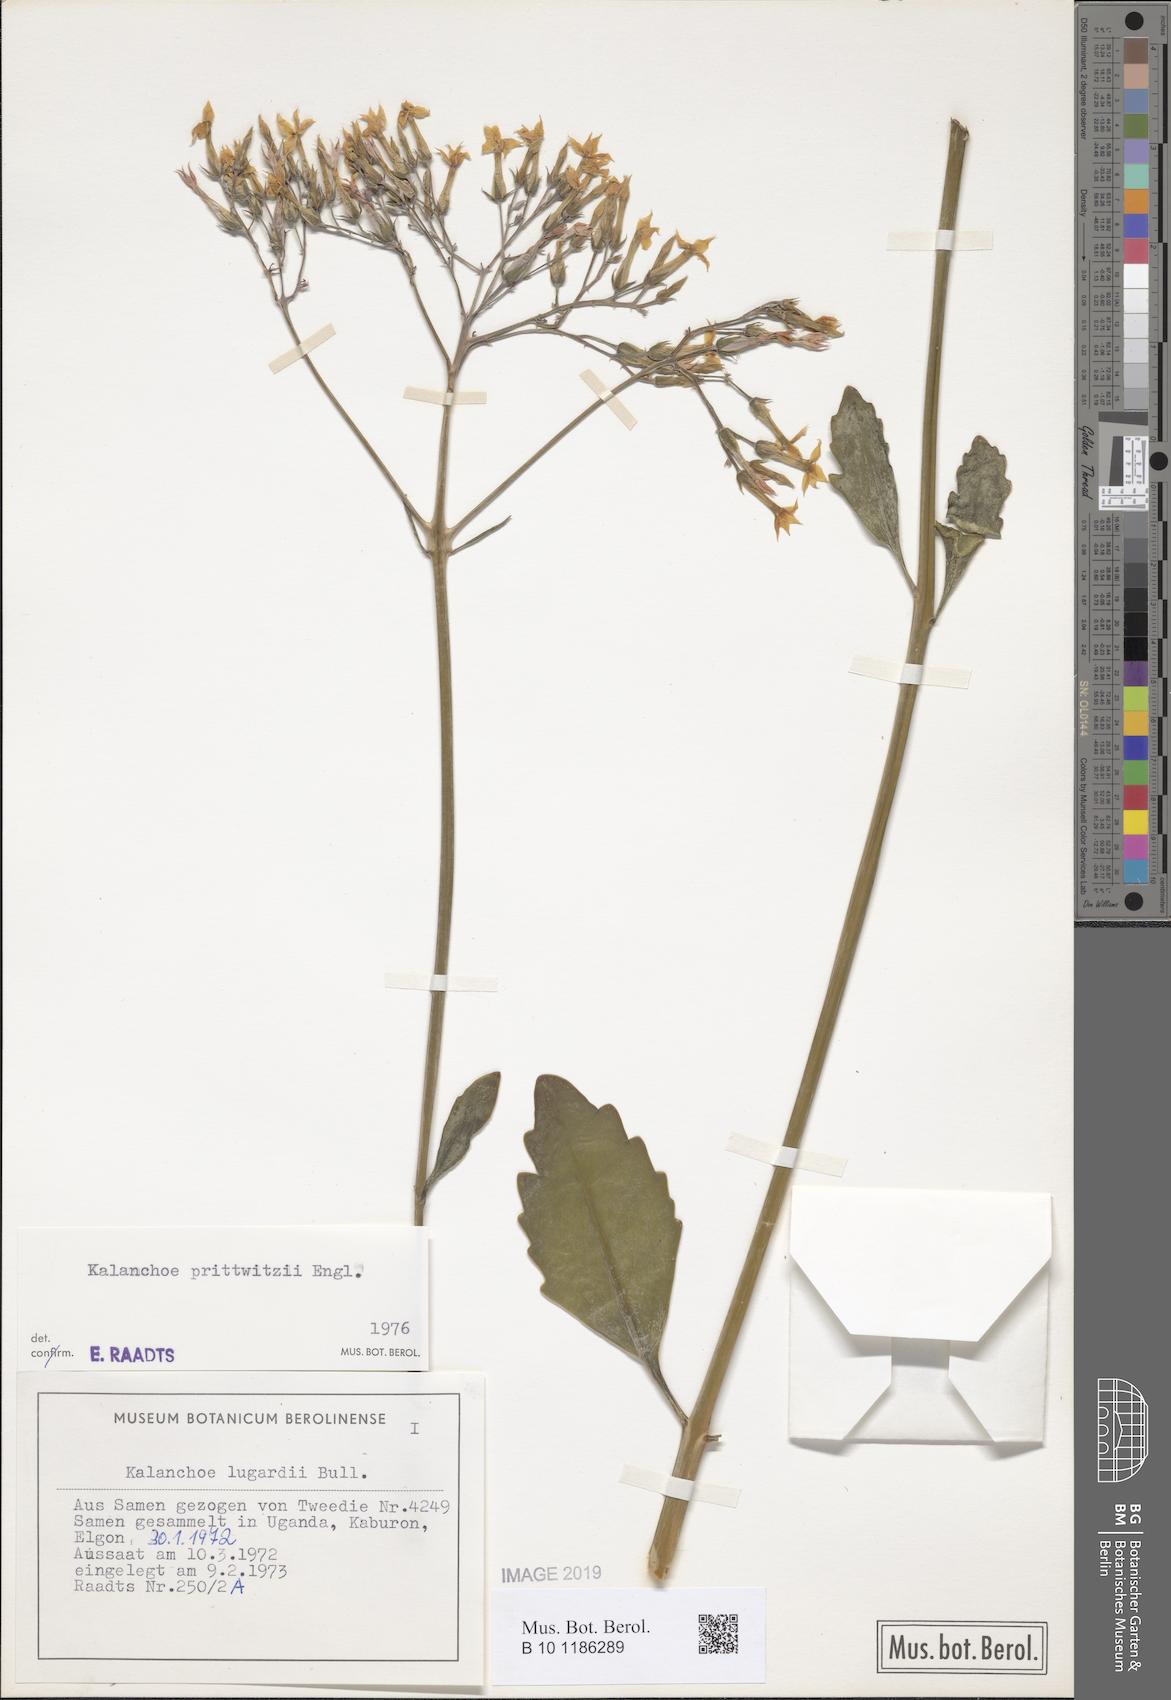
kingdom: Plantae
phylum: Tracheophyta
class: Magnoliopsida
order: Saxifragales
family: Crassulaceae
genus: Kalanchoe
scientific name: Kalanchoe prittwitzii
